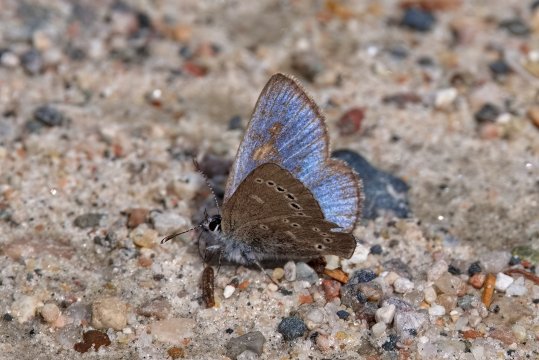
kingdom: Animalia
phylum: Arthropoda
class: Insecta
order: Lepidoptera
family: Lycaenidae
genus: Glaucopsyche
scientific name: Glaucopsyche lygdamus
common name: Silvery Blue
